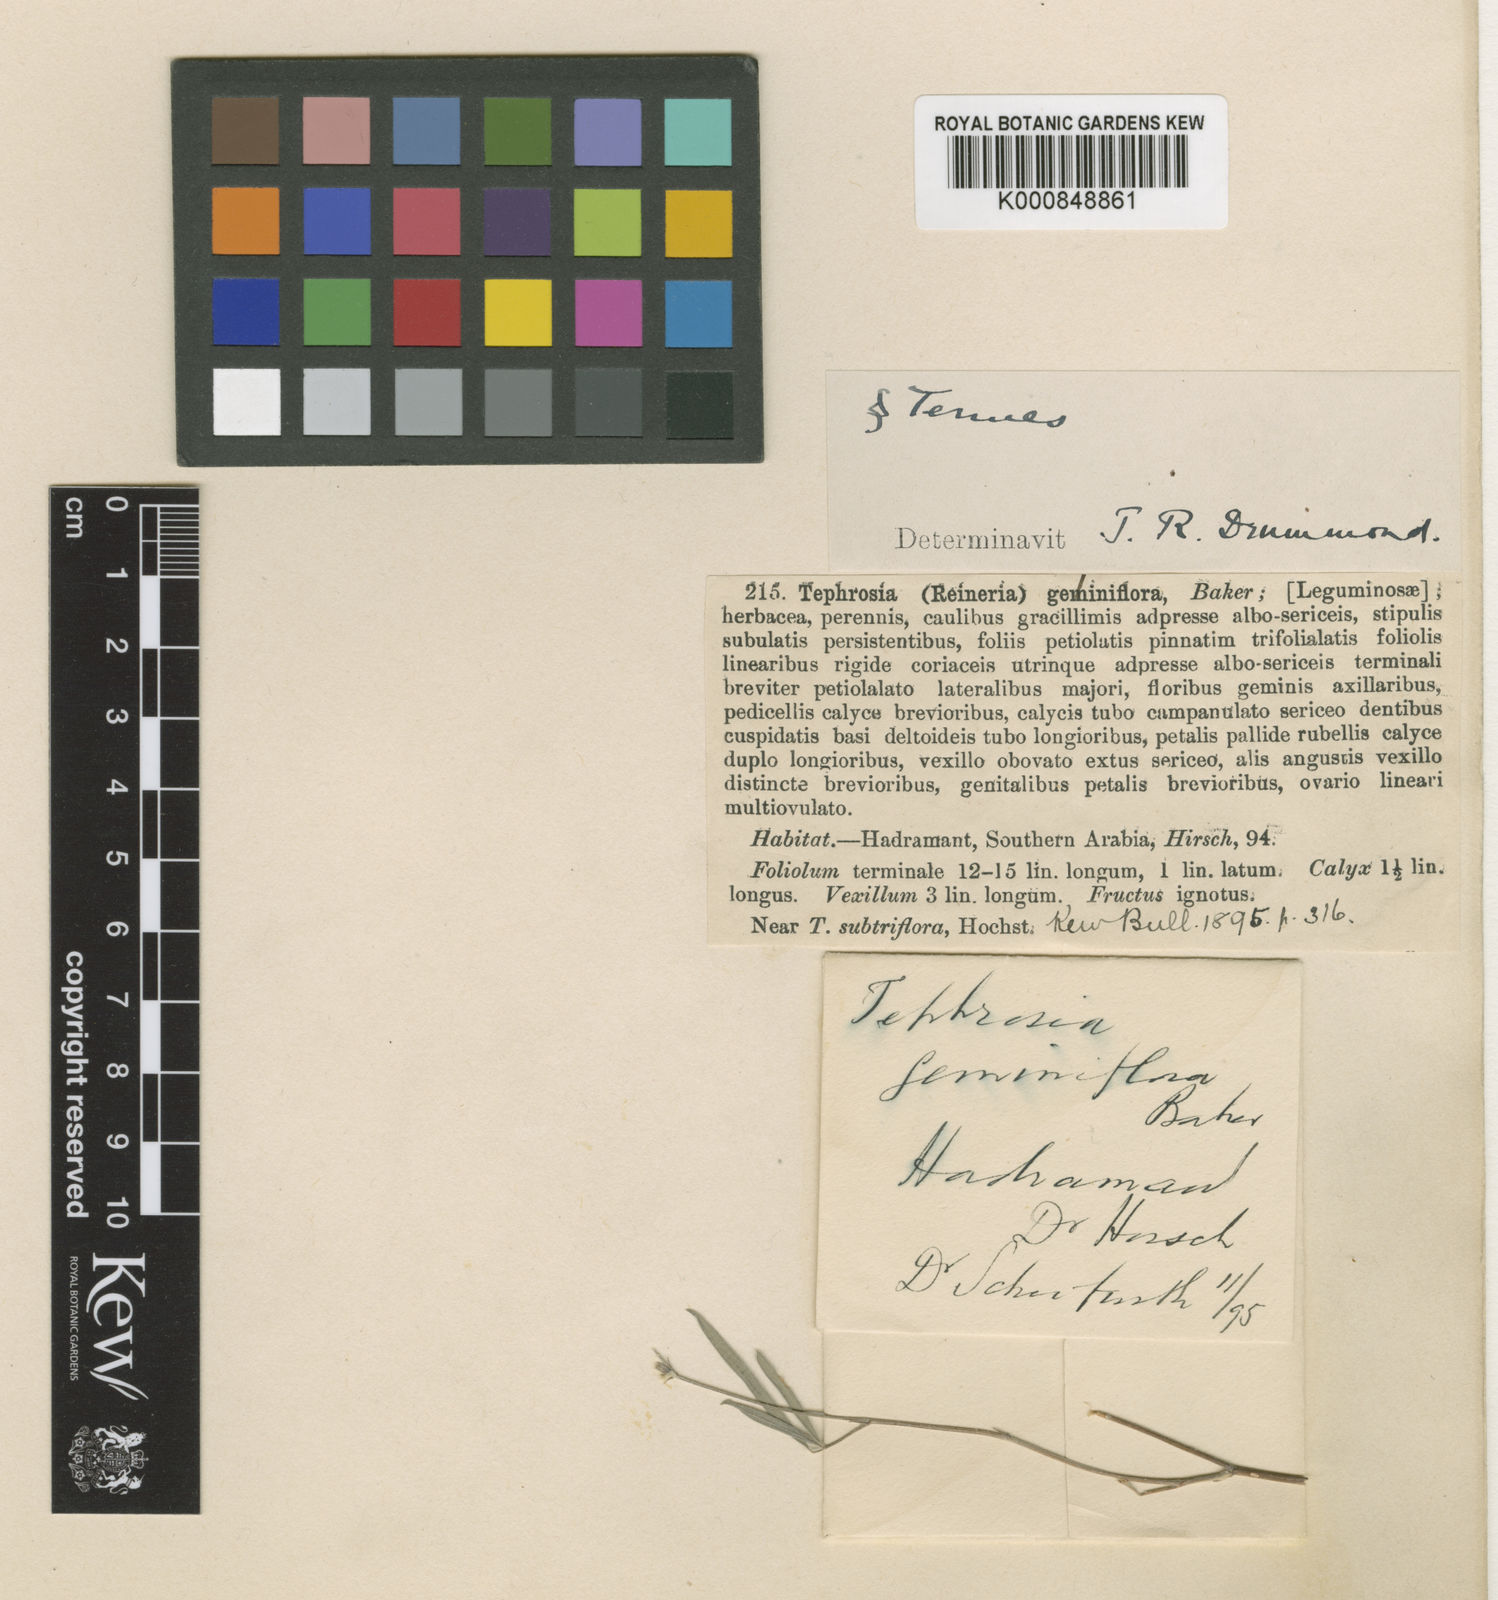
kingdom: Plantae
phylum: Tracheophyta
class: Magnoliopsida
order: Fabales
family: Fabaceae
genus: Tephrosia
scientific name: Tephrosia geminiflora
